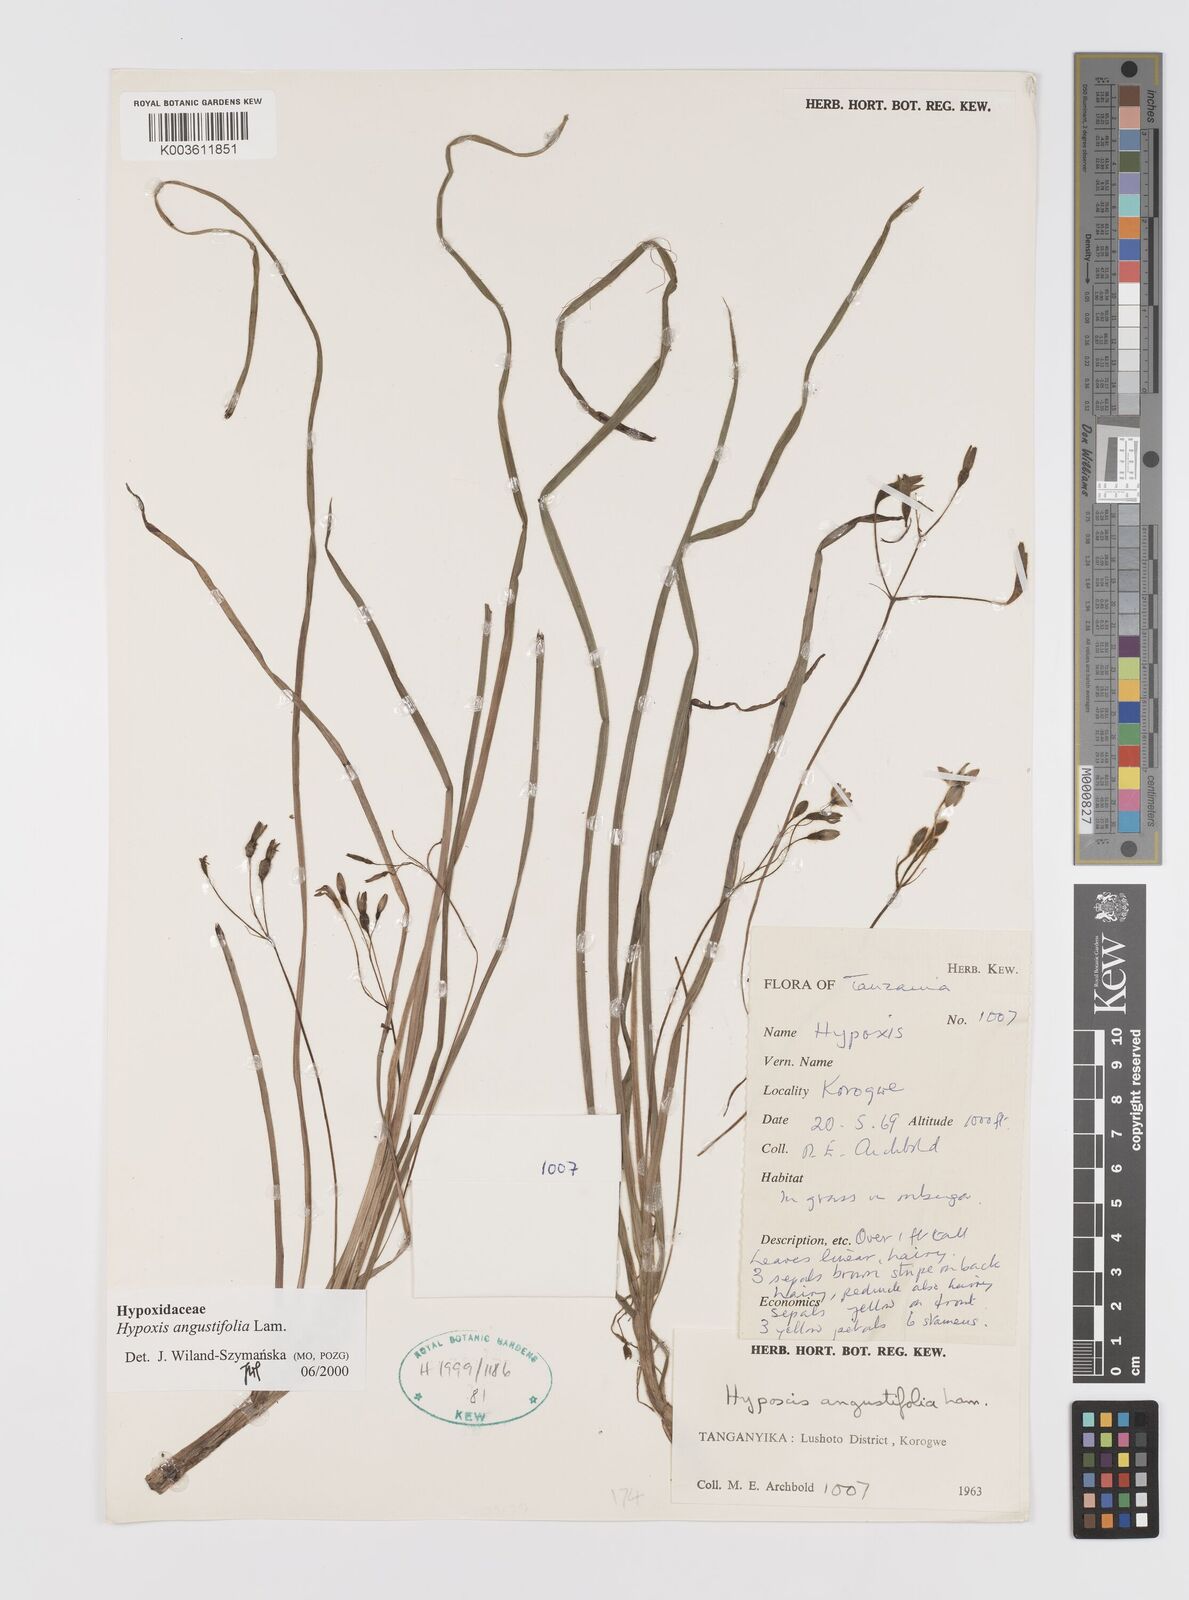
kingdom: Plantae
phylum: Tracheophyta
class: Liliopsida
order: Asparagales
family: Hypoxidaceae
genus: Hypoxis
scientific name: Hypoxis angustifolia
